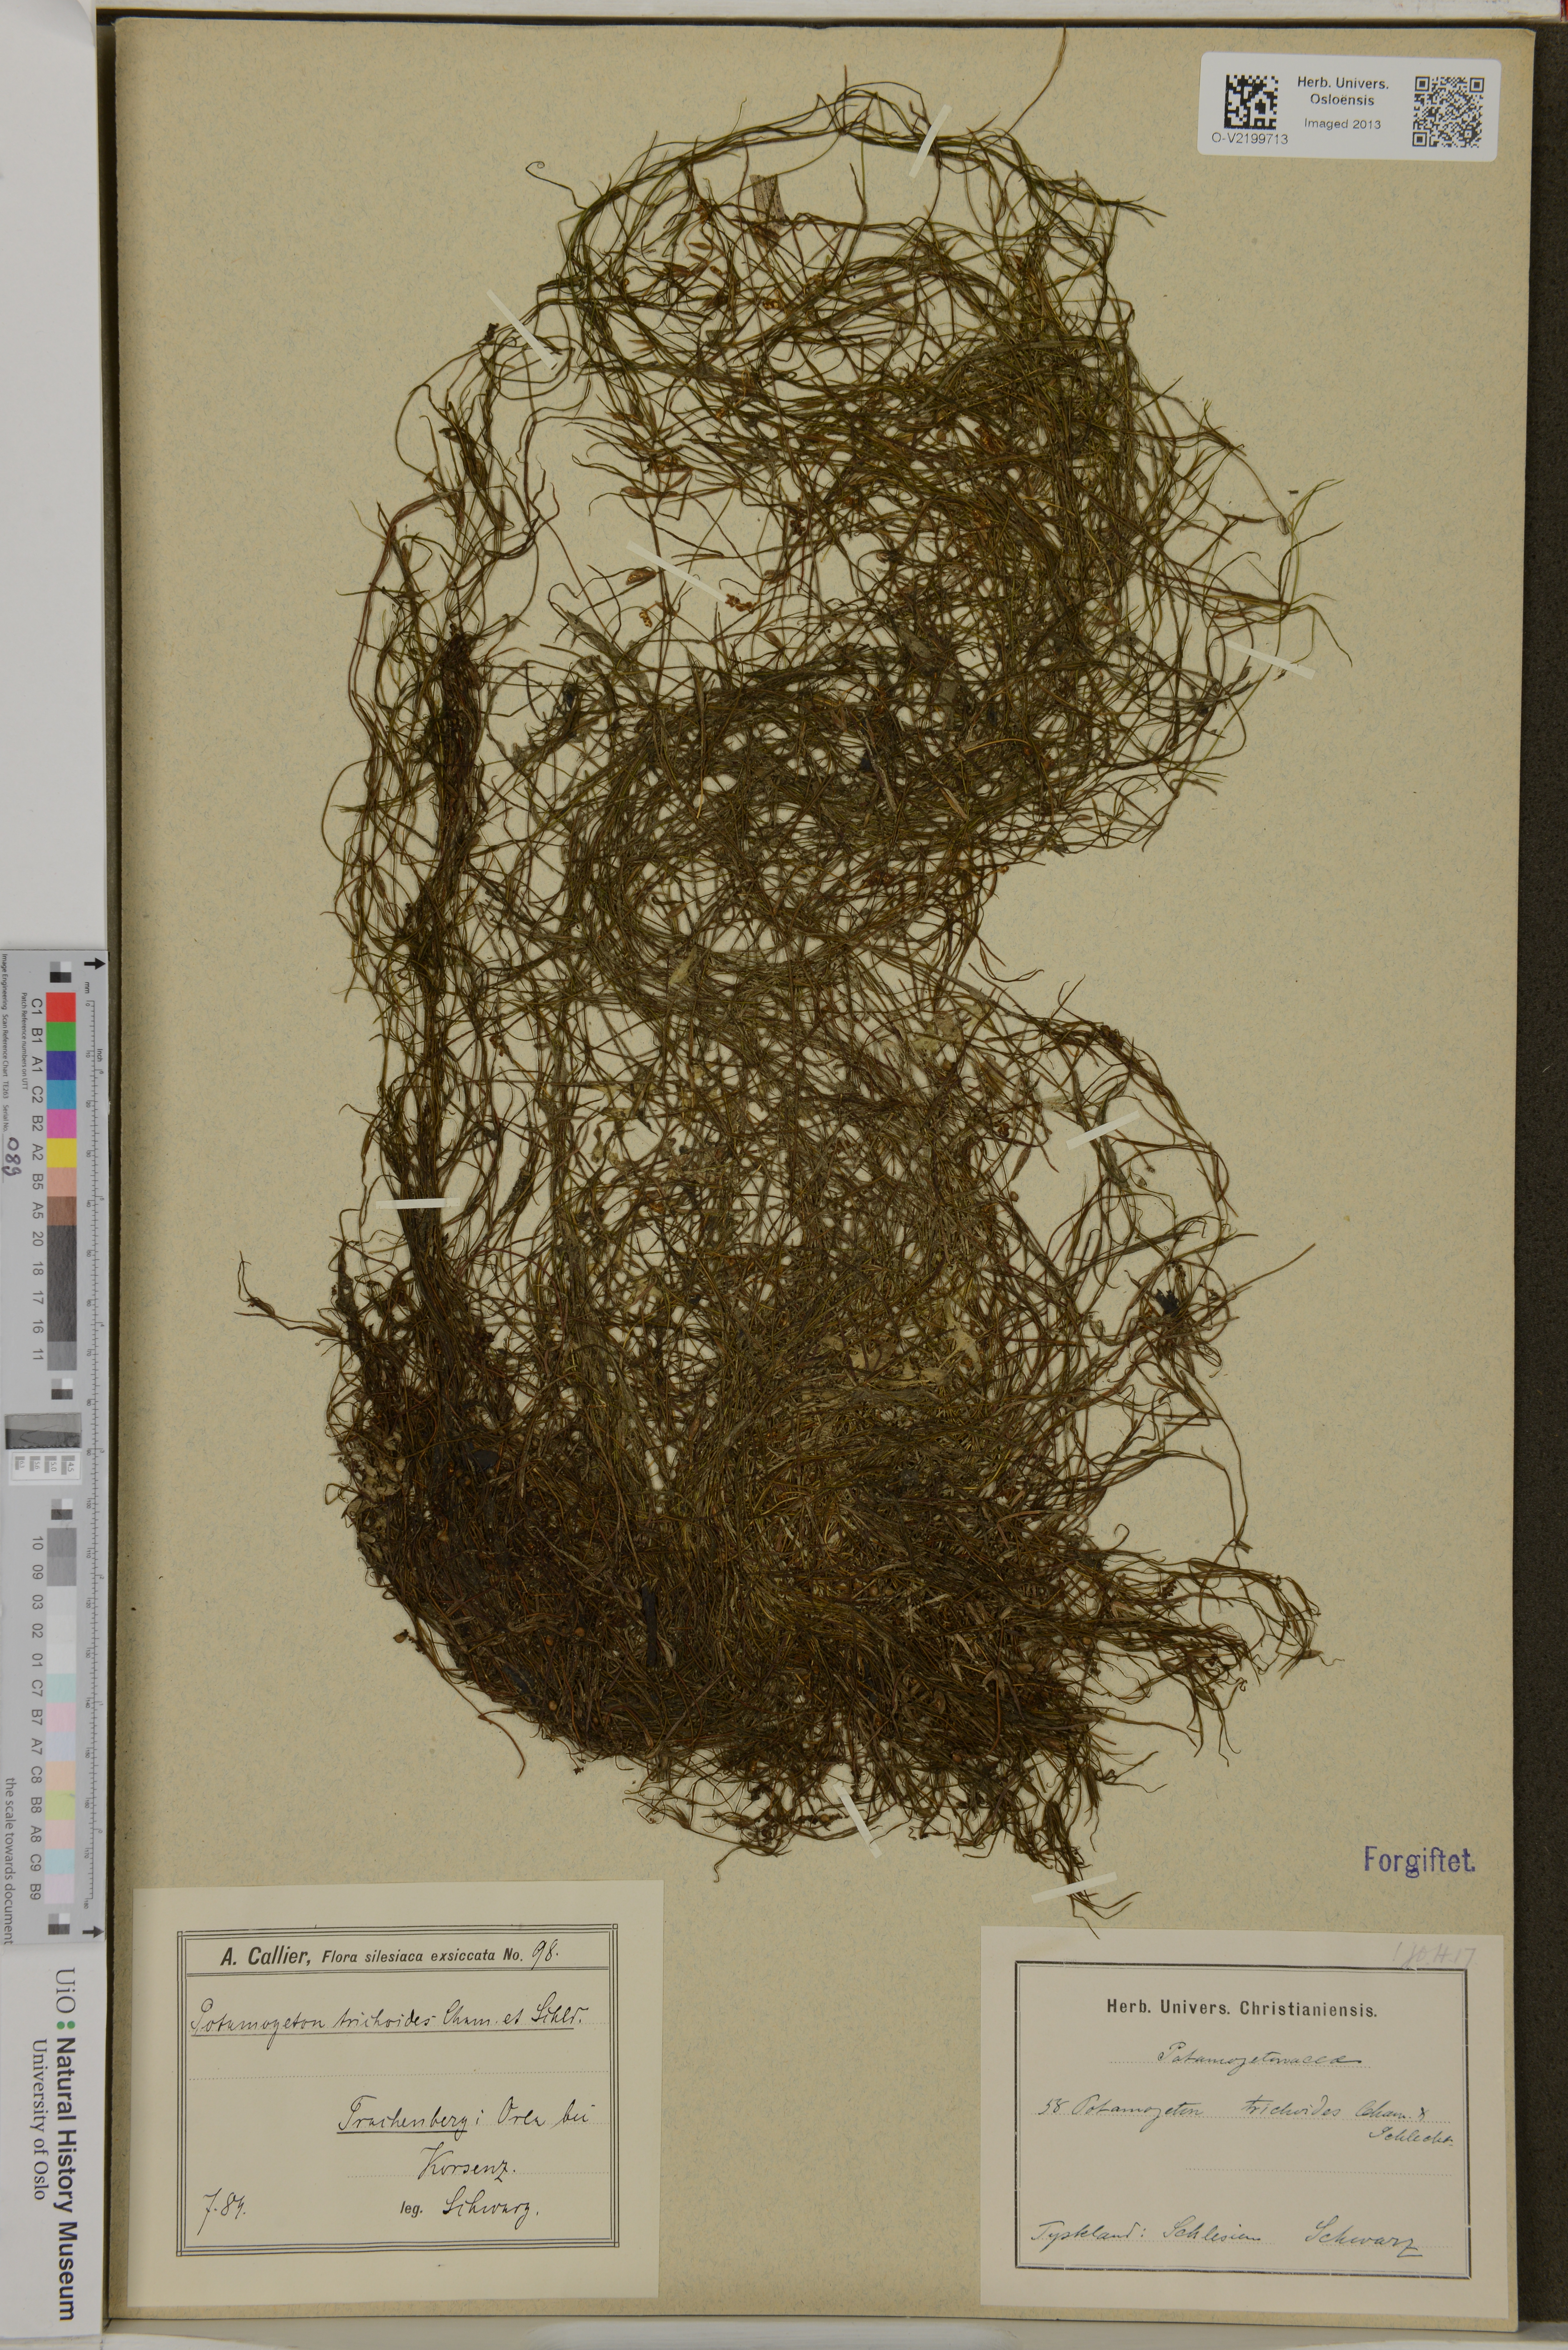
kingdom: Plantae
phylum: Tracheophyta
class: Liliopsida
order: Alismatales
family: Potamogetonaceae
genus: Potamogeton
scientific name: Potamogeton trichoides
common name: Hairlike pondweed
